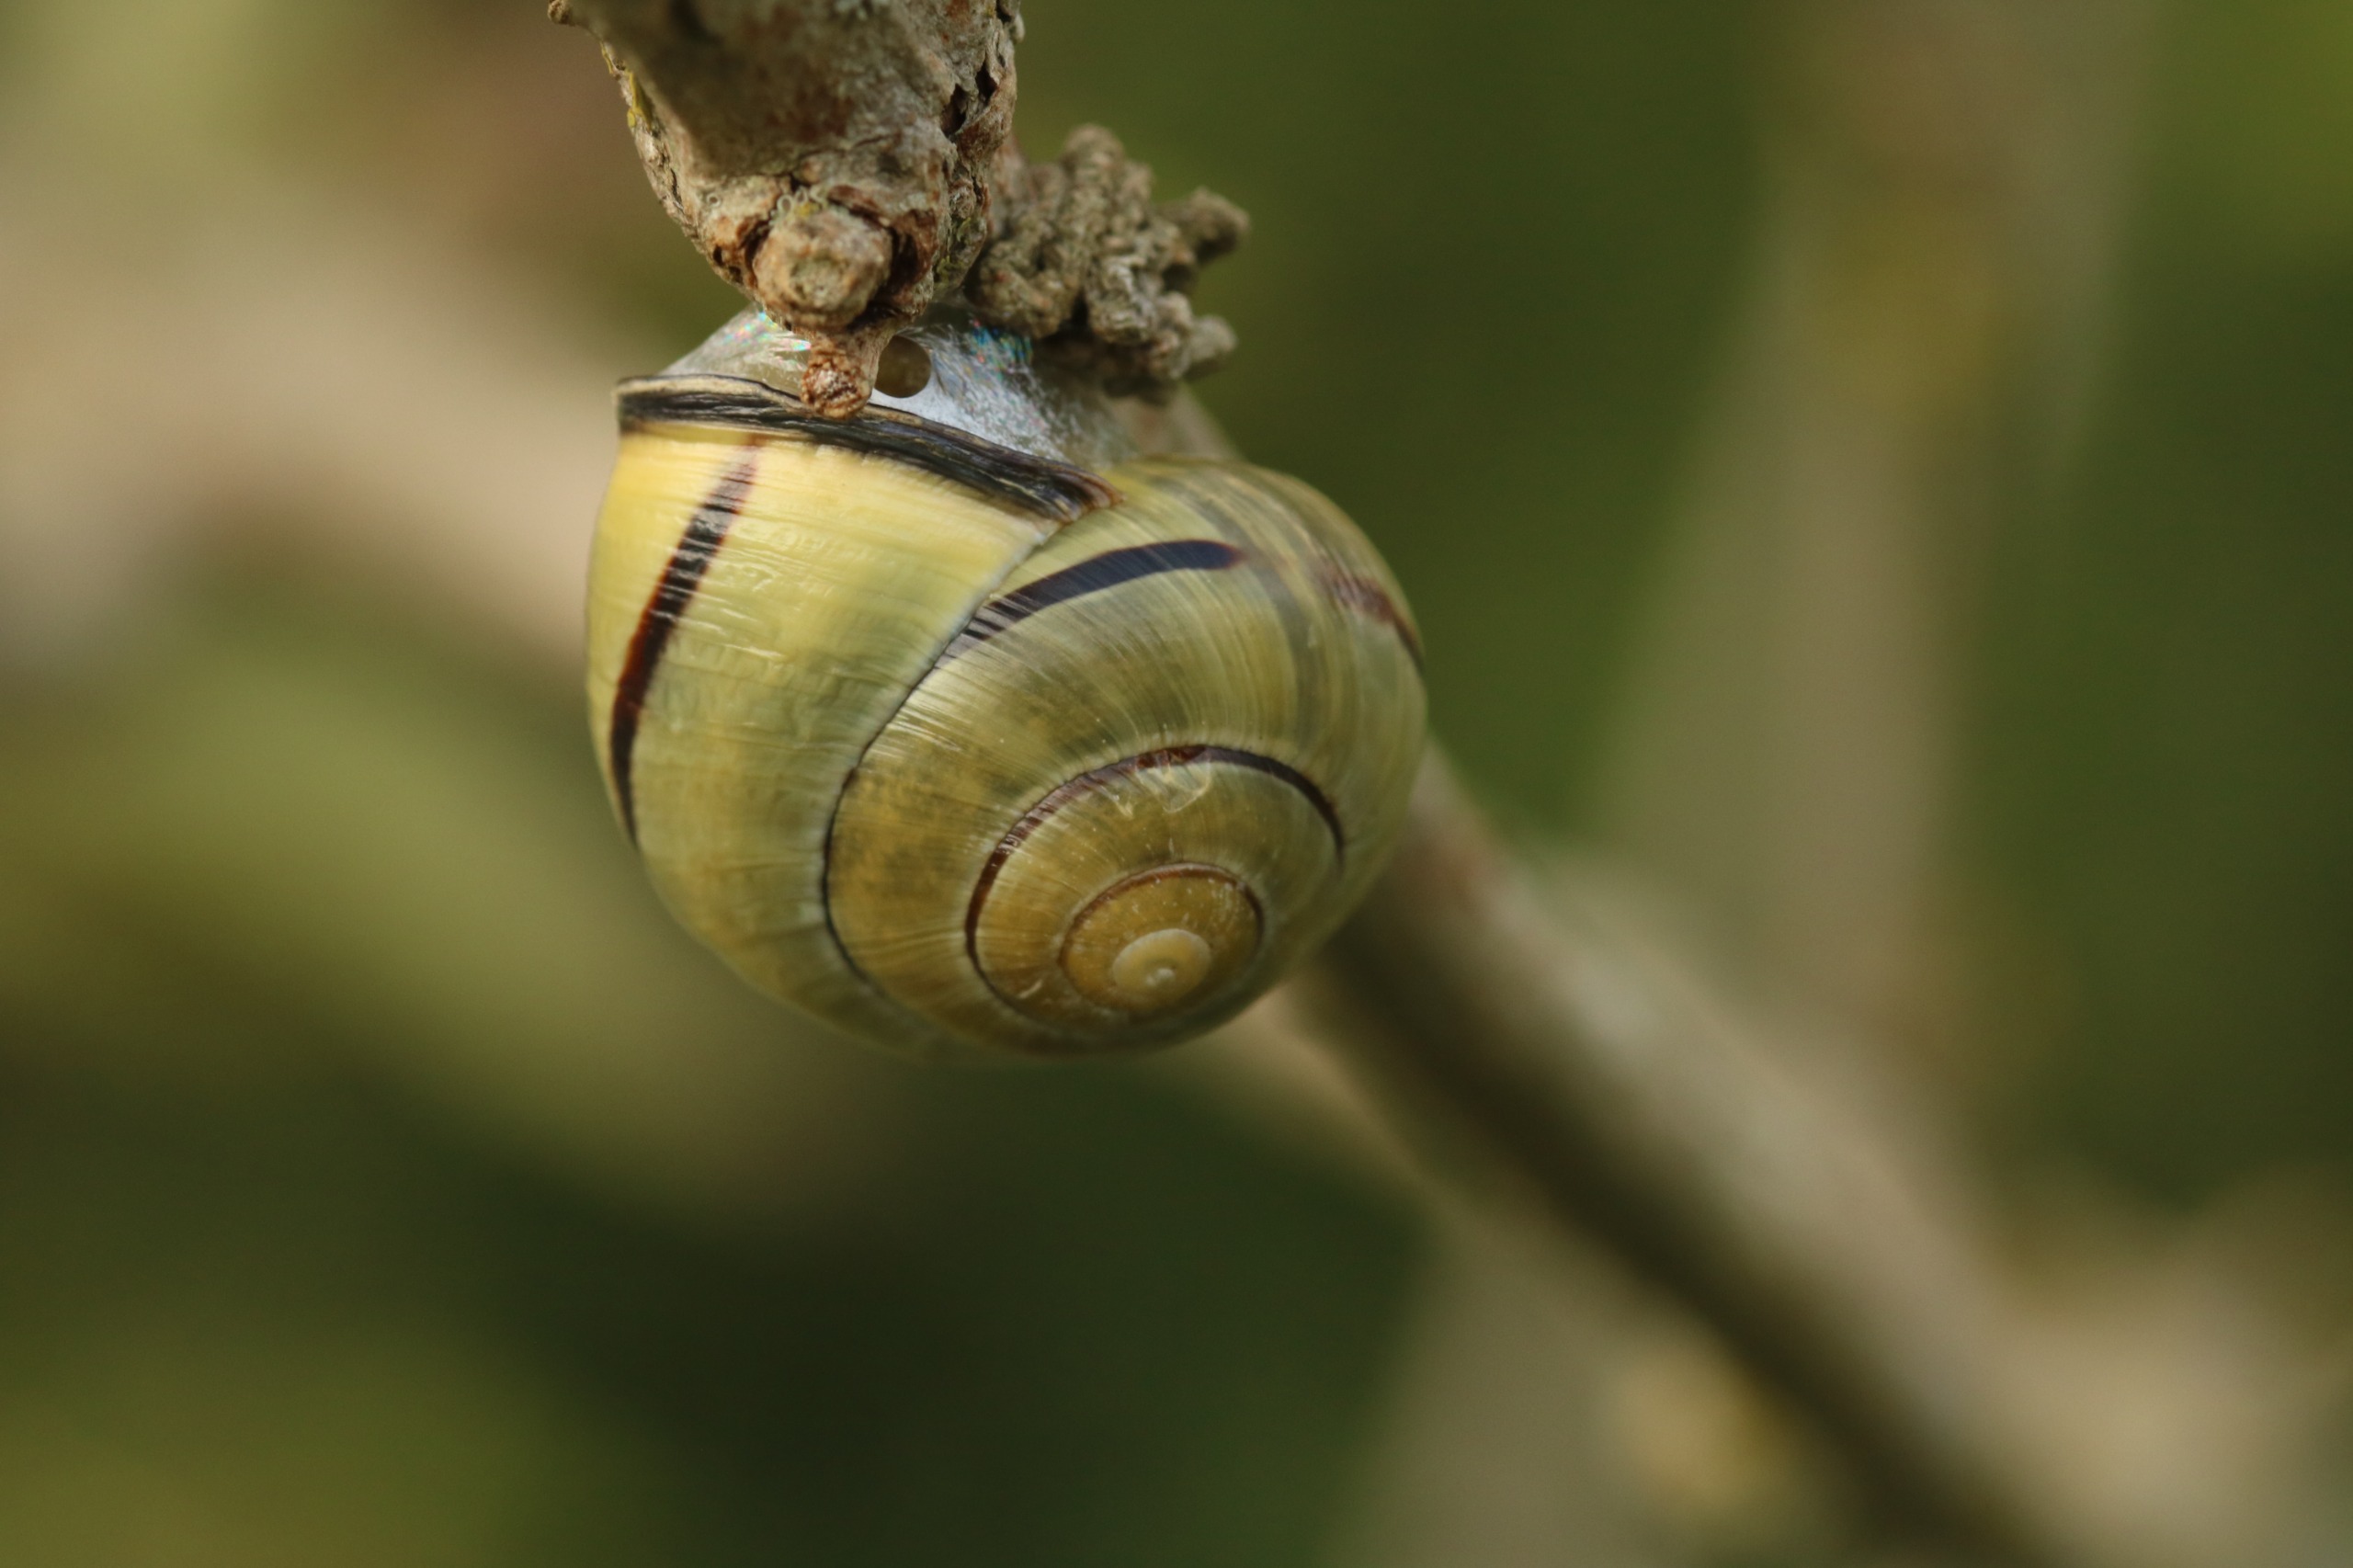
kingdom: Animalia
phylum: Mollusca
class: Gastropoda
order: Stylommatophora
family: Helicidae
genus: Cepaea
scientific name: Cepaea nemoralis
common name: Lundsnegl
